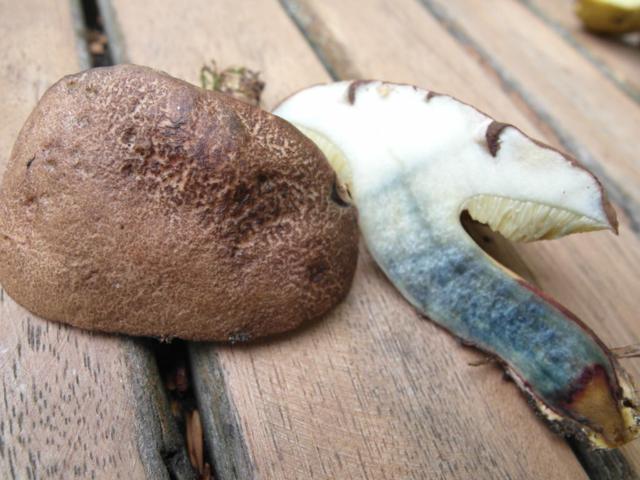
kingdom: Fungi
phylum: Basidiomycota
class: Agaricomycetes
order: Boletales
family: Boletaceae
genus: Xerocomellus
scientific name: Xerocomellus cisalpinus
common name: finsprukken rørhat
